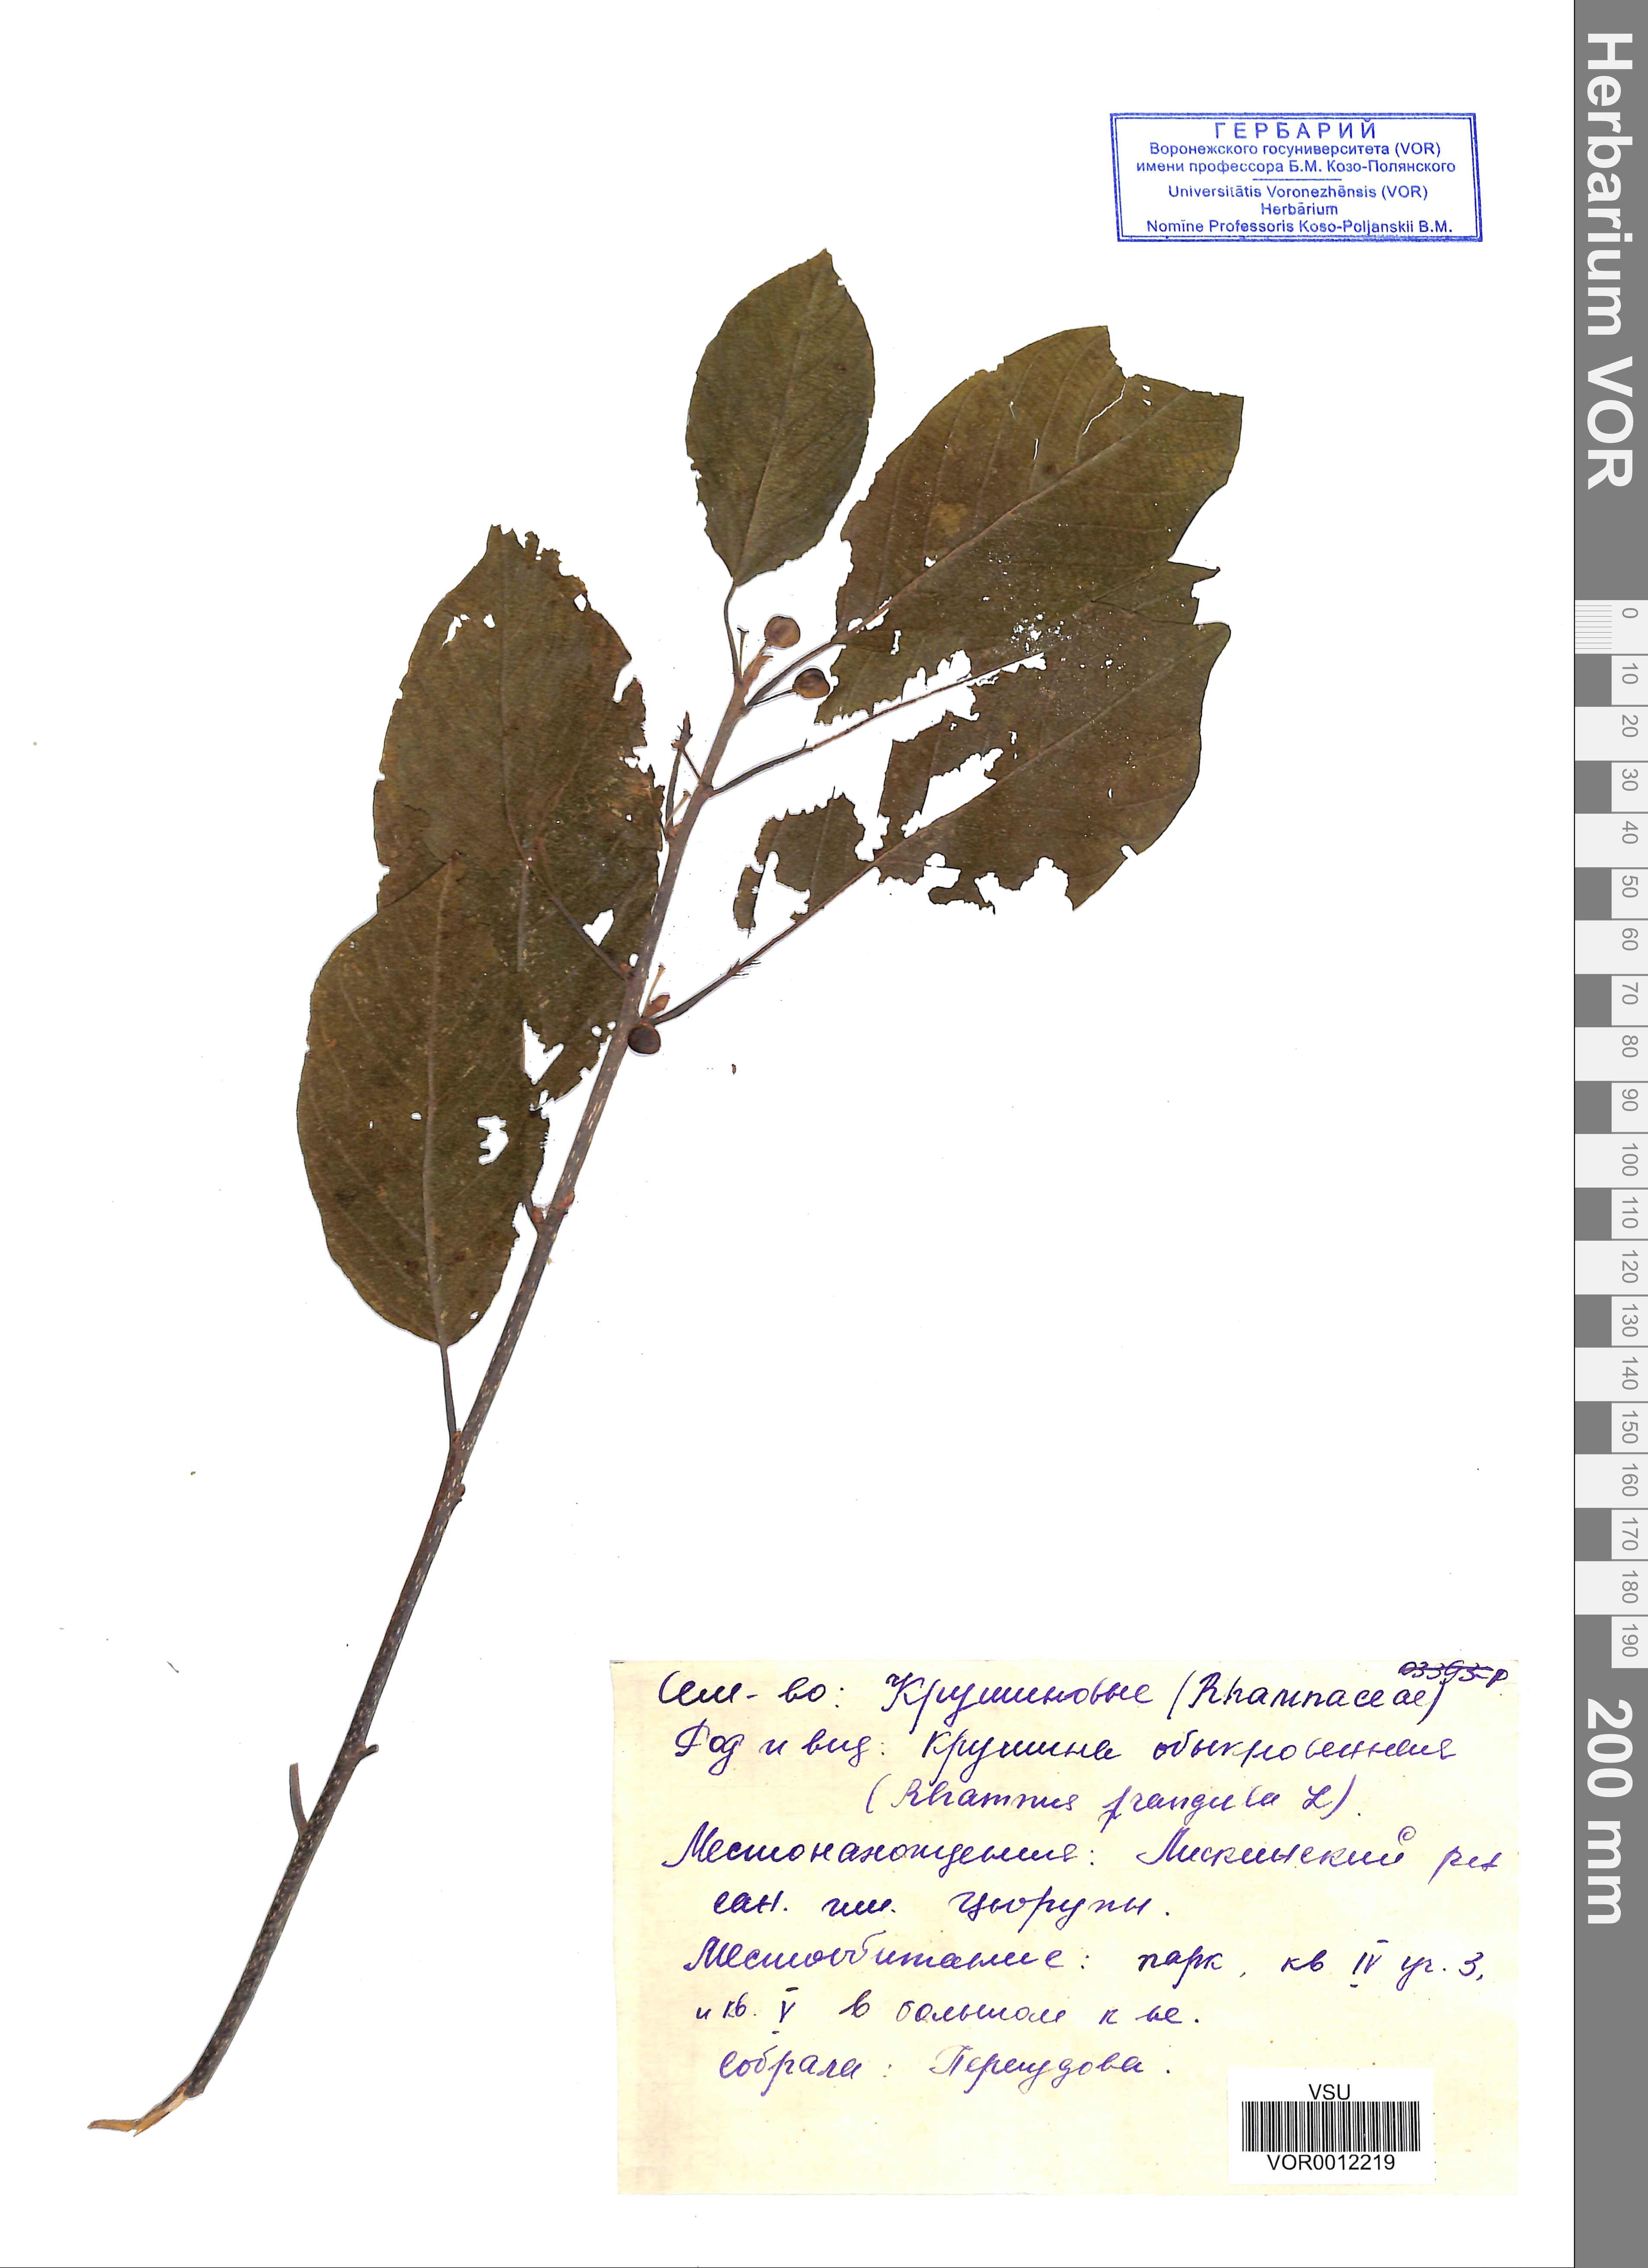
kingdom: Plantae
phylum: Tracheophyta
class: Magnoliopsida
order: Rosales
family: Rhamnaceae
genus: Frangula
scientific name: Frangula alnus
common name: Alder buckthorn
